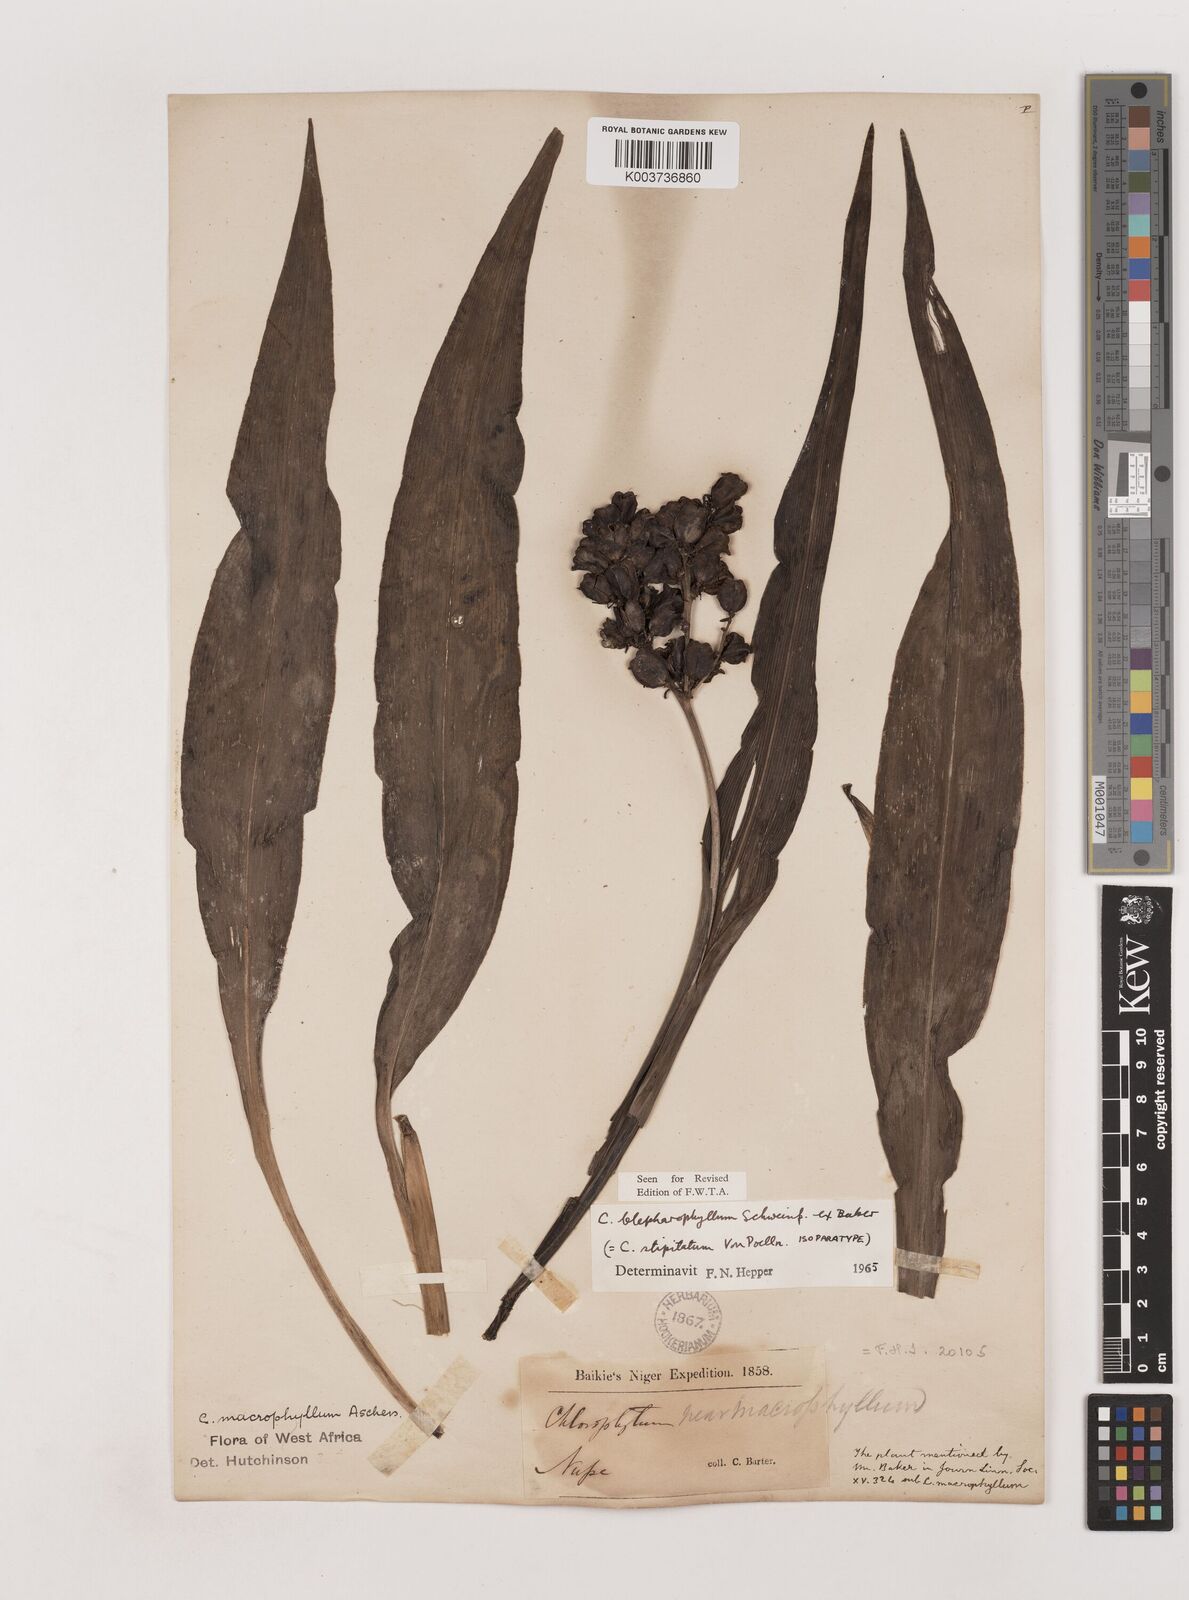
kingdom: Plantae
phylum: Tracheophyta
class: Liliopsida
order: Asparagales
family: Asparagaceae
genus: Chlorophytum
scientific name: Chlorophytum blepharophyllum
